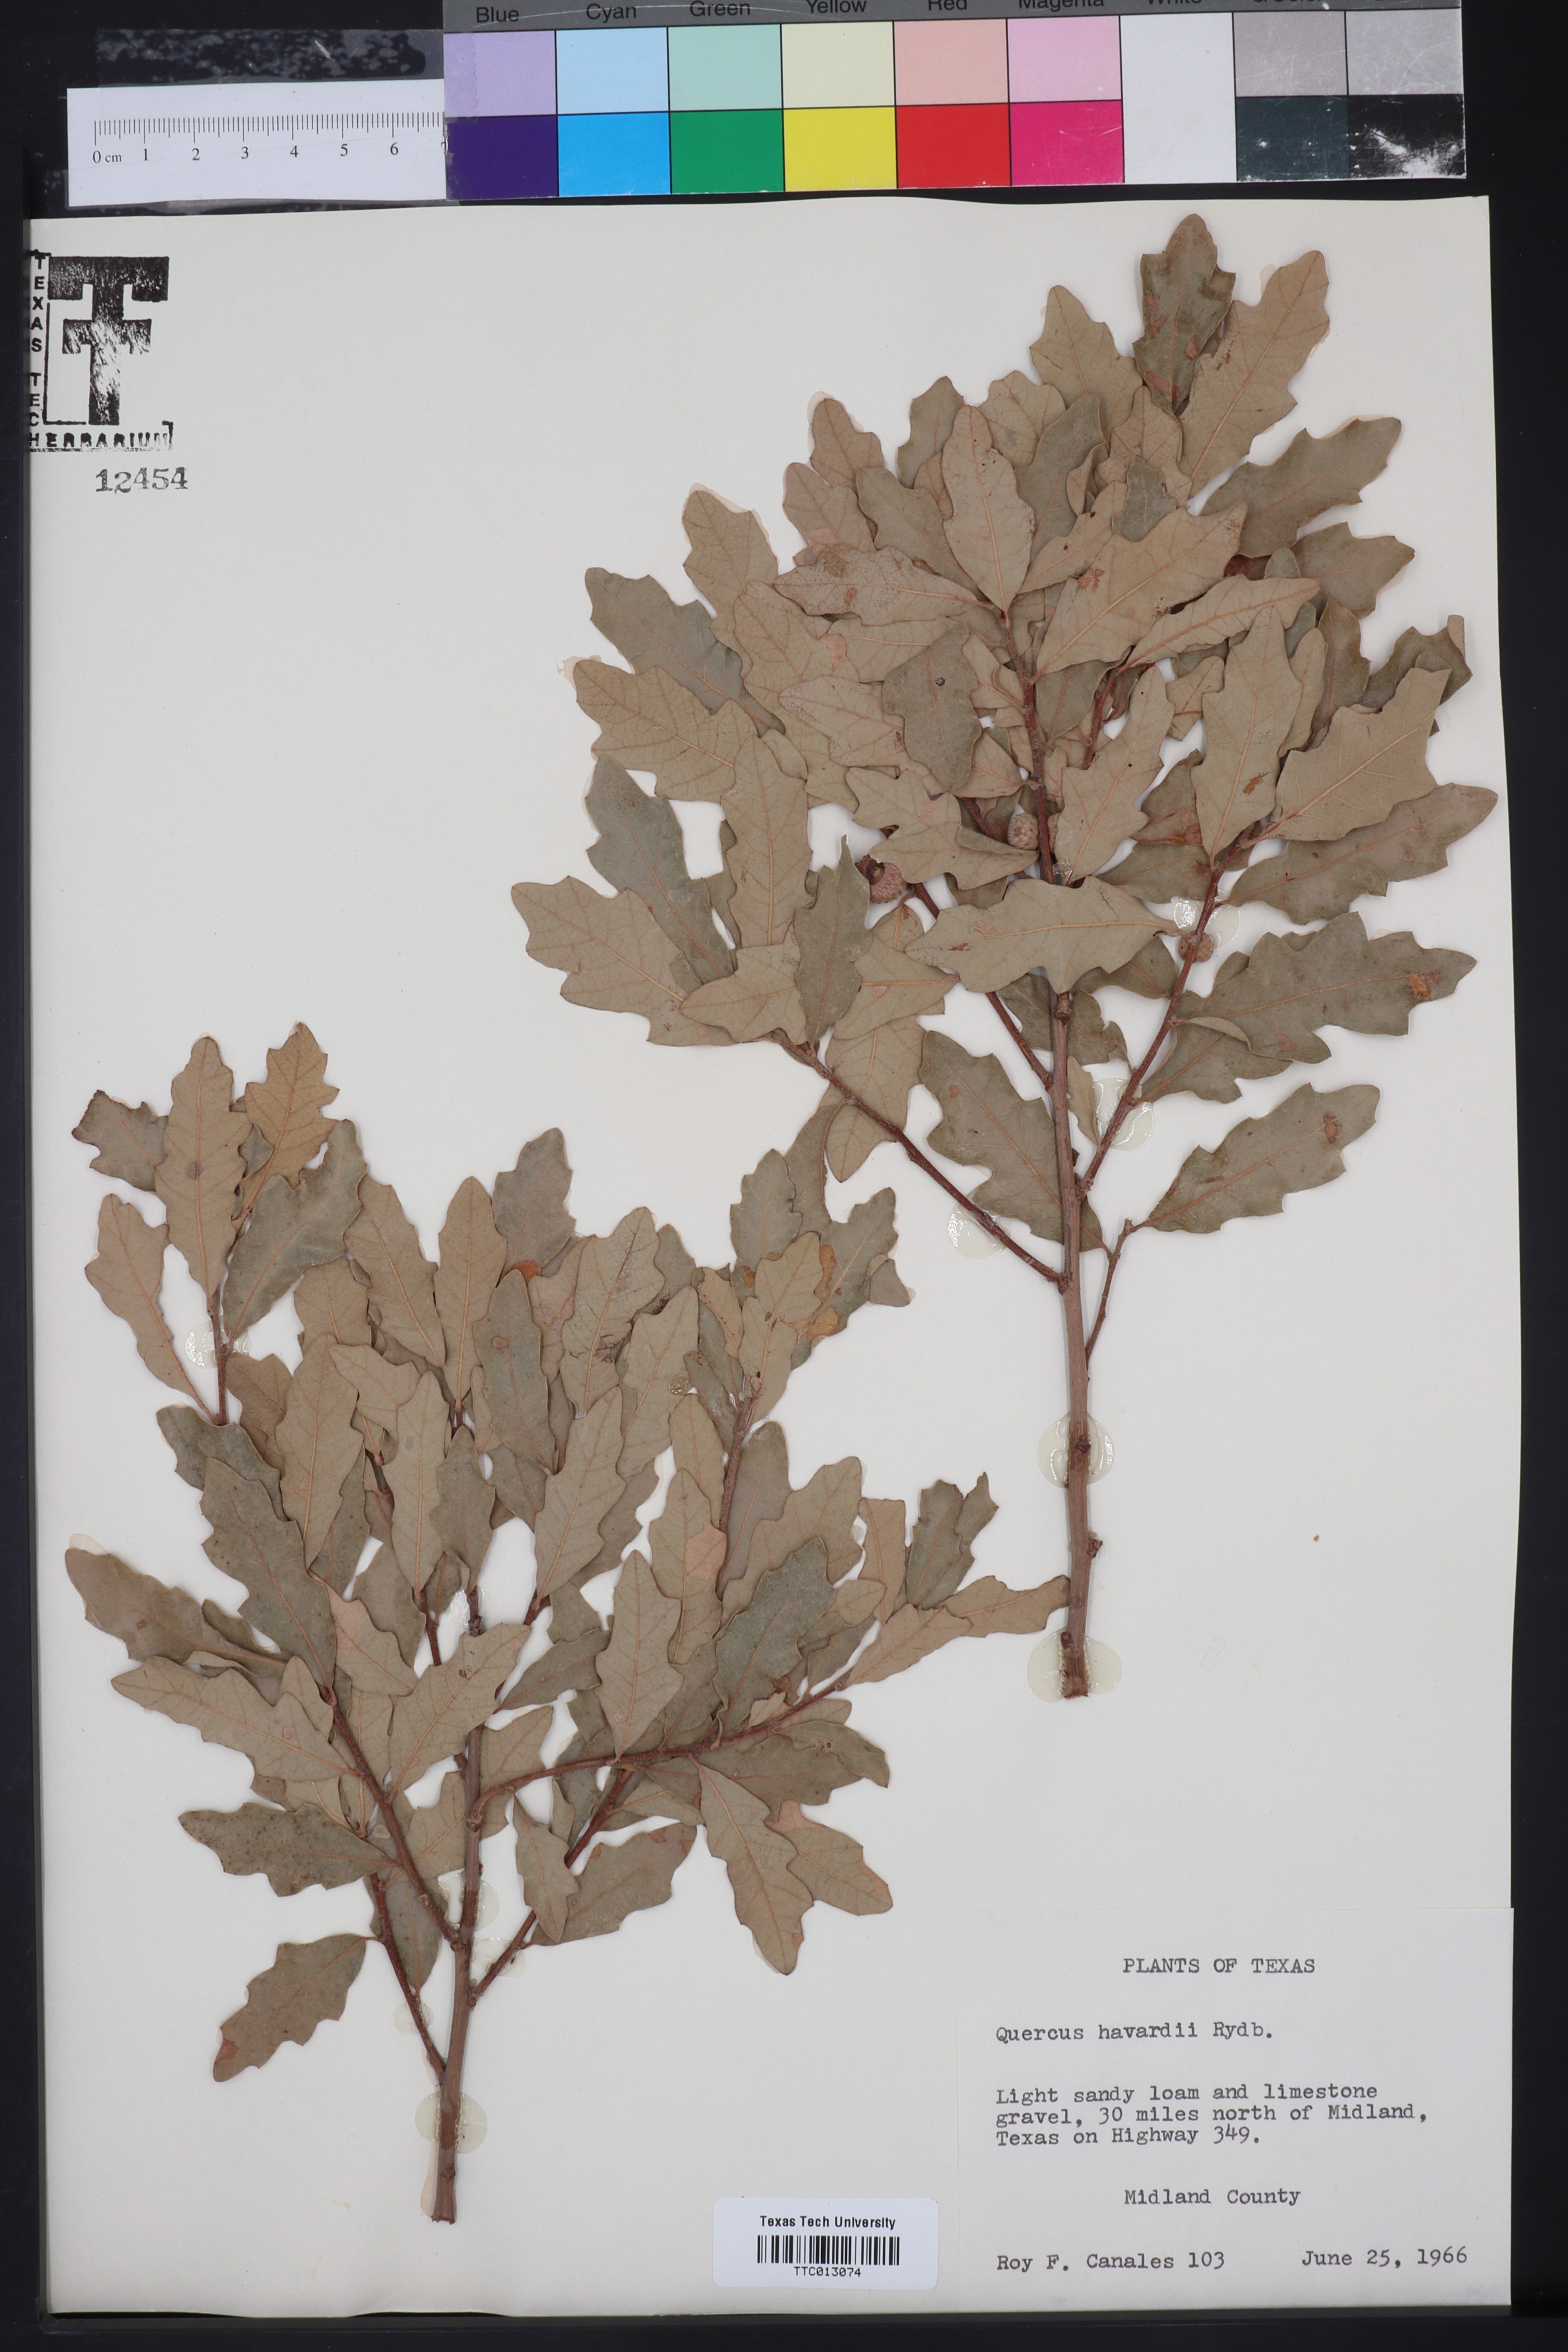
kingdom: Plantae
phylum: Tracheophyta
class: Magnoliopsida
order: Fagales
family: Fagaceae
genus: Quercus
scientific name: Quercus havardii
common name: Shinnery oak
